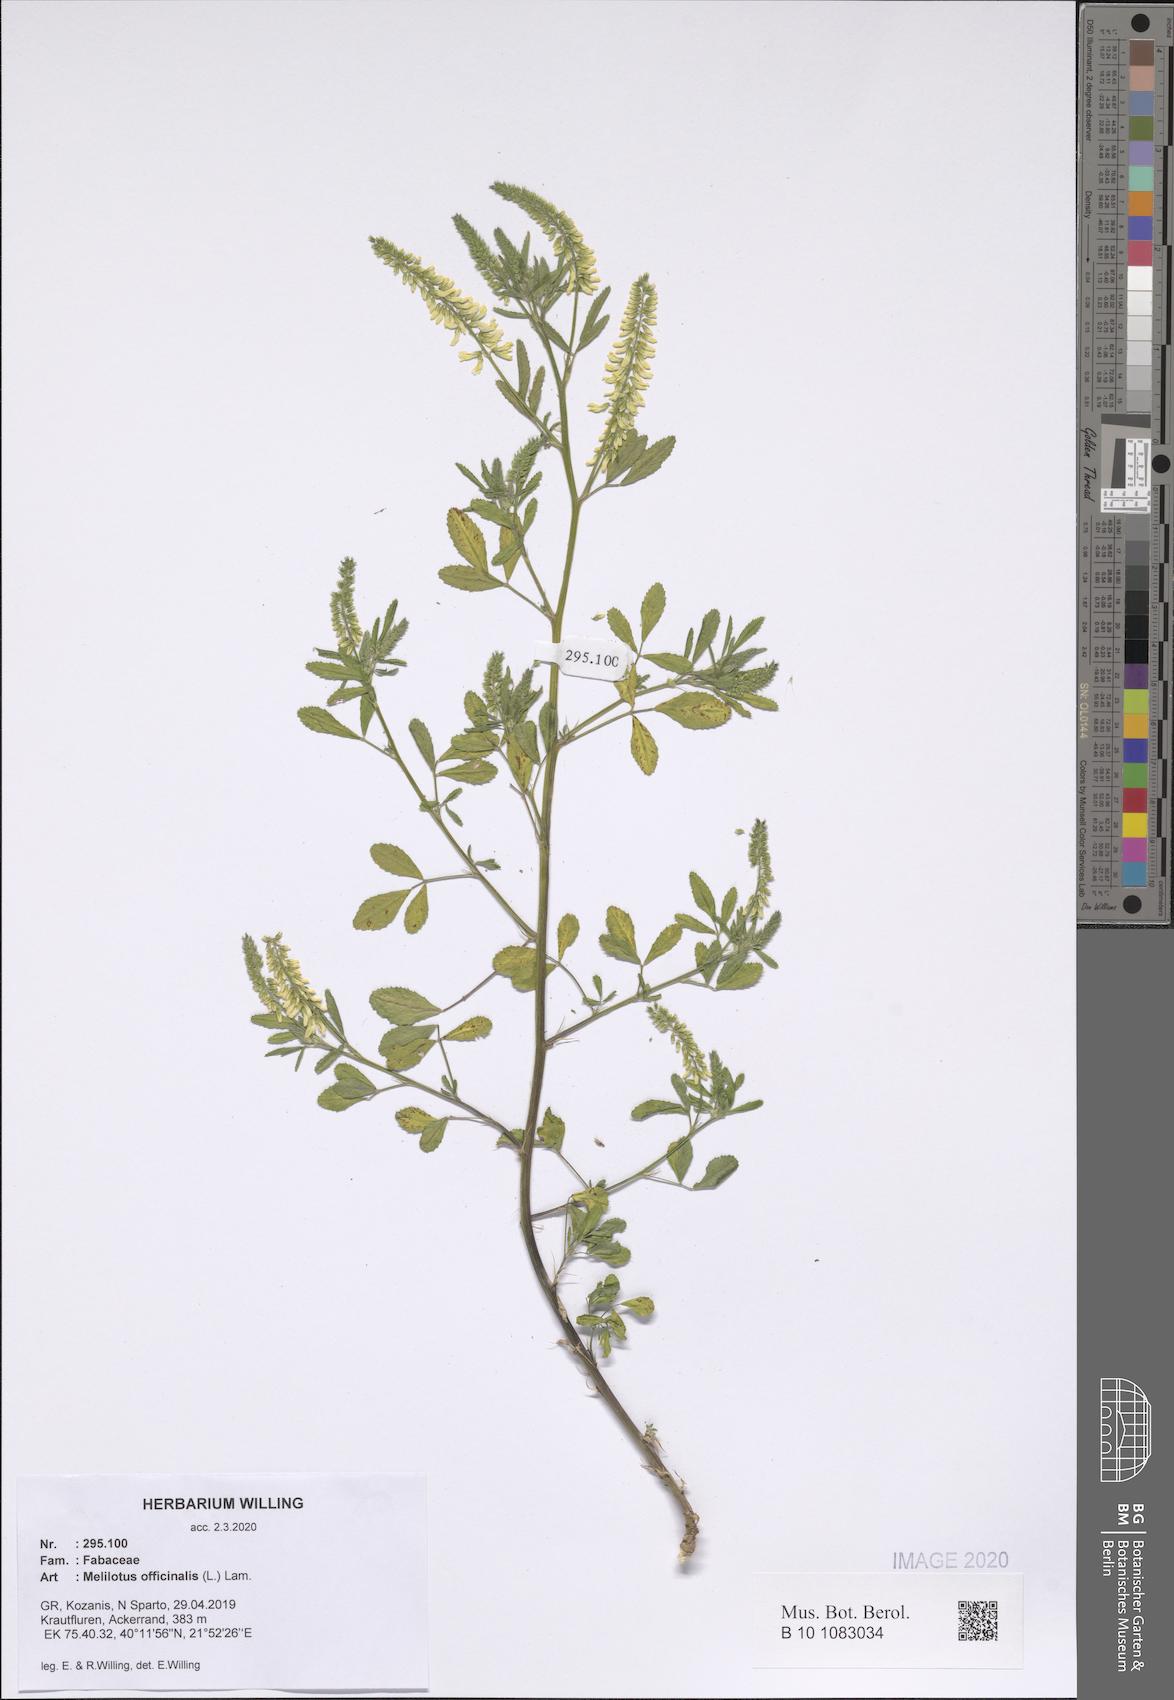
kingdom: Plantae
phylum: Tracheophyta
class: Magnoliopsida
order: Fabales
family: Fabaceae
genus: Melilotus
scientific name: Melilotus officinalis
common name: Sweetclover
